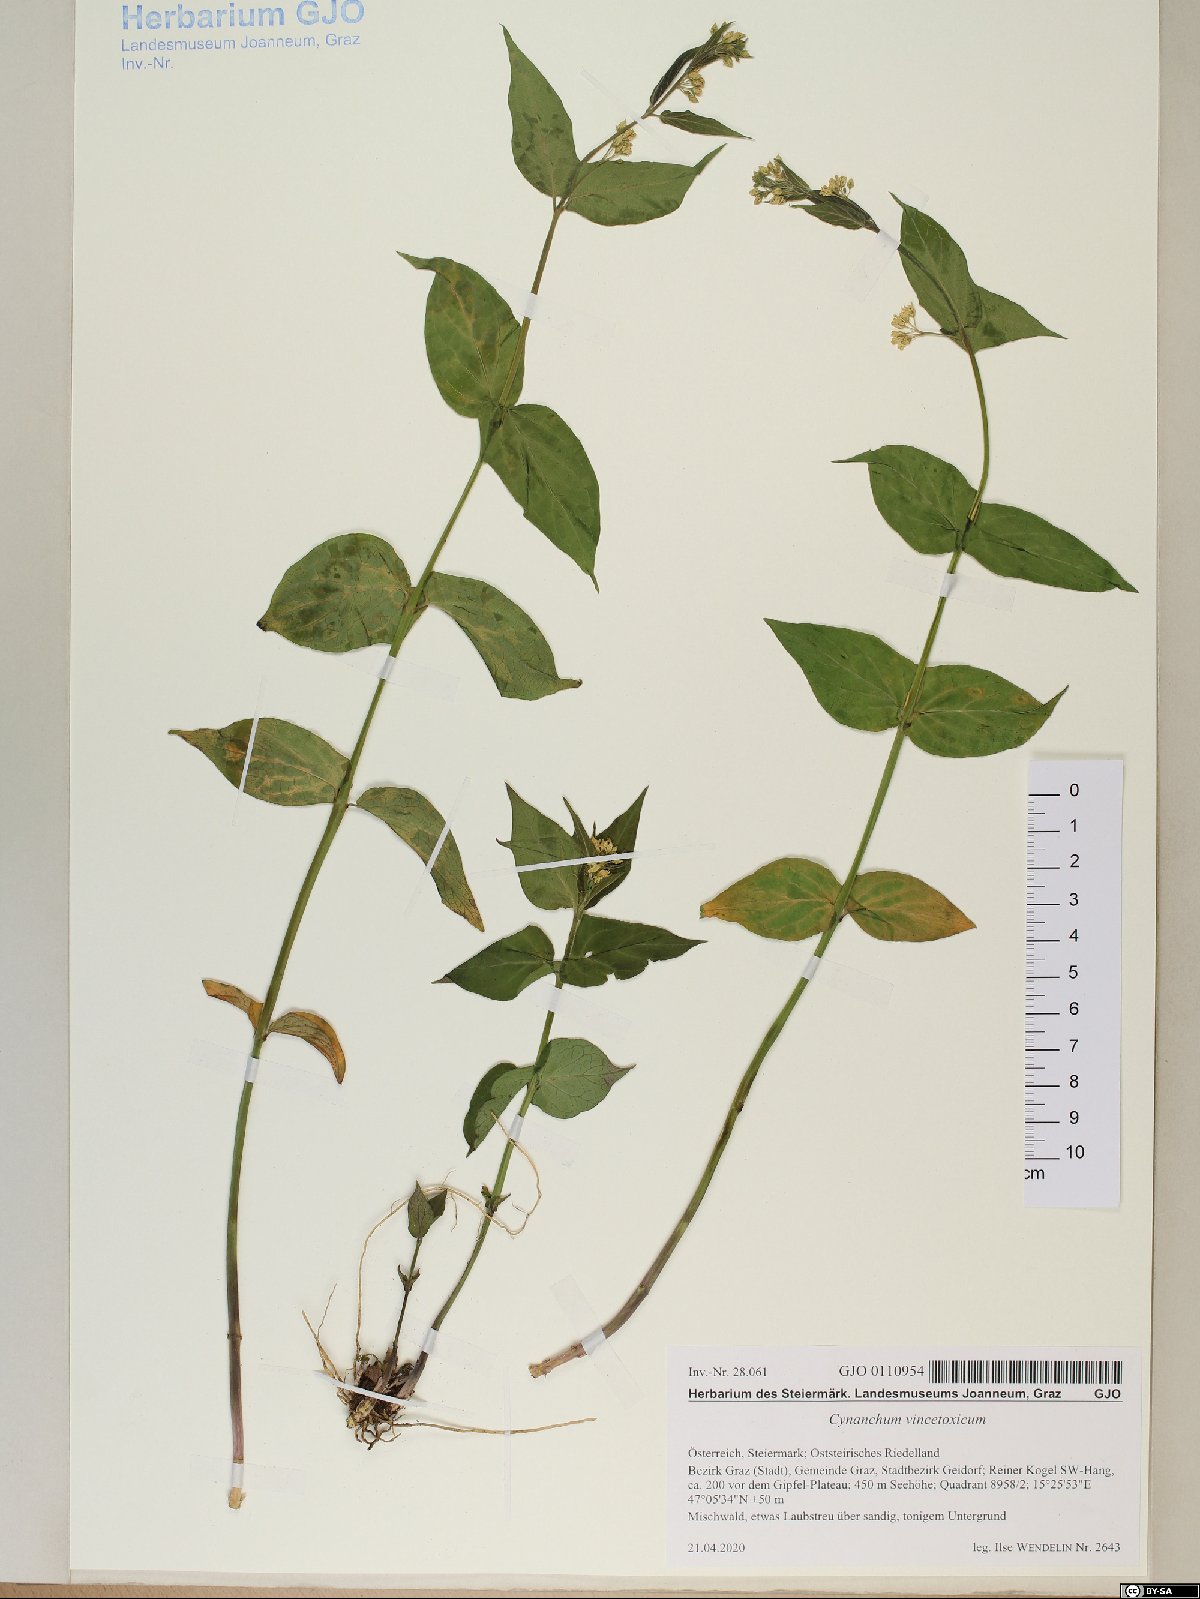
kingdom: Plantae
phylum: Tracheophyta
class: Magnoliopsida
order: Gentianales
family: Apocynaceae
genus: Vincetoxicum
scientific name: Vincetoxicum hirundinaria
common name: White swallowwort
